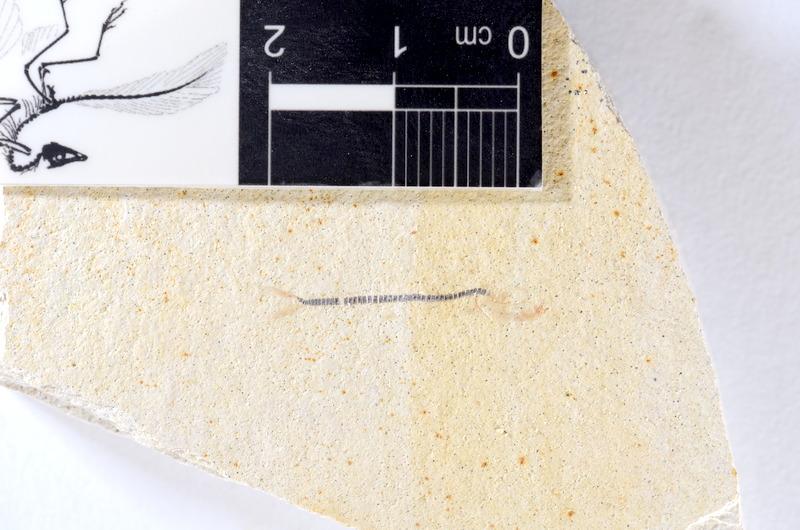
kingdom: Animalia
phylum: Chordata
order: Salmoniformes
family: Orthogonikleithridae
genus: Orthogonikleithrus
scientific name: Orthogonikleithrus hoelli
